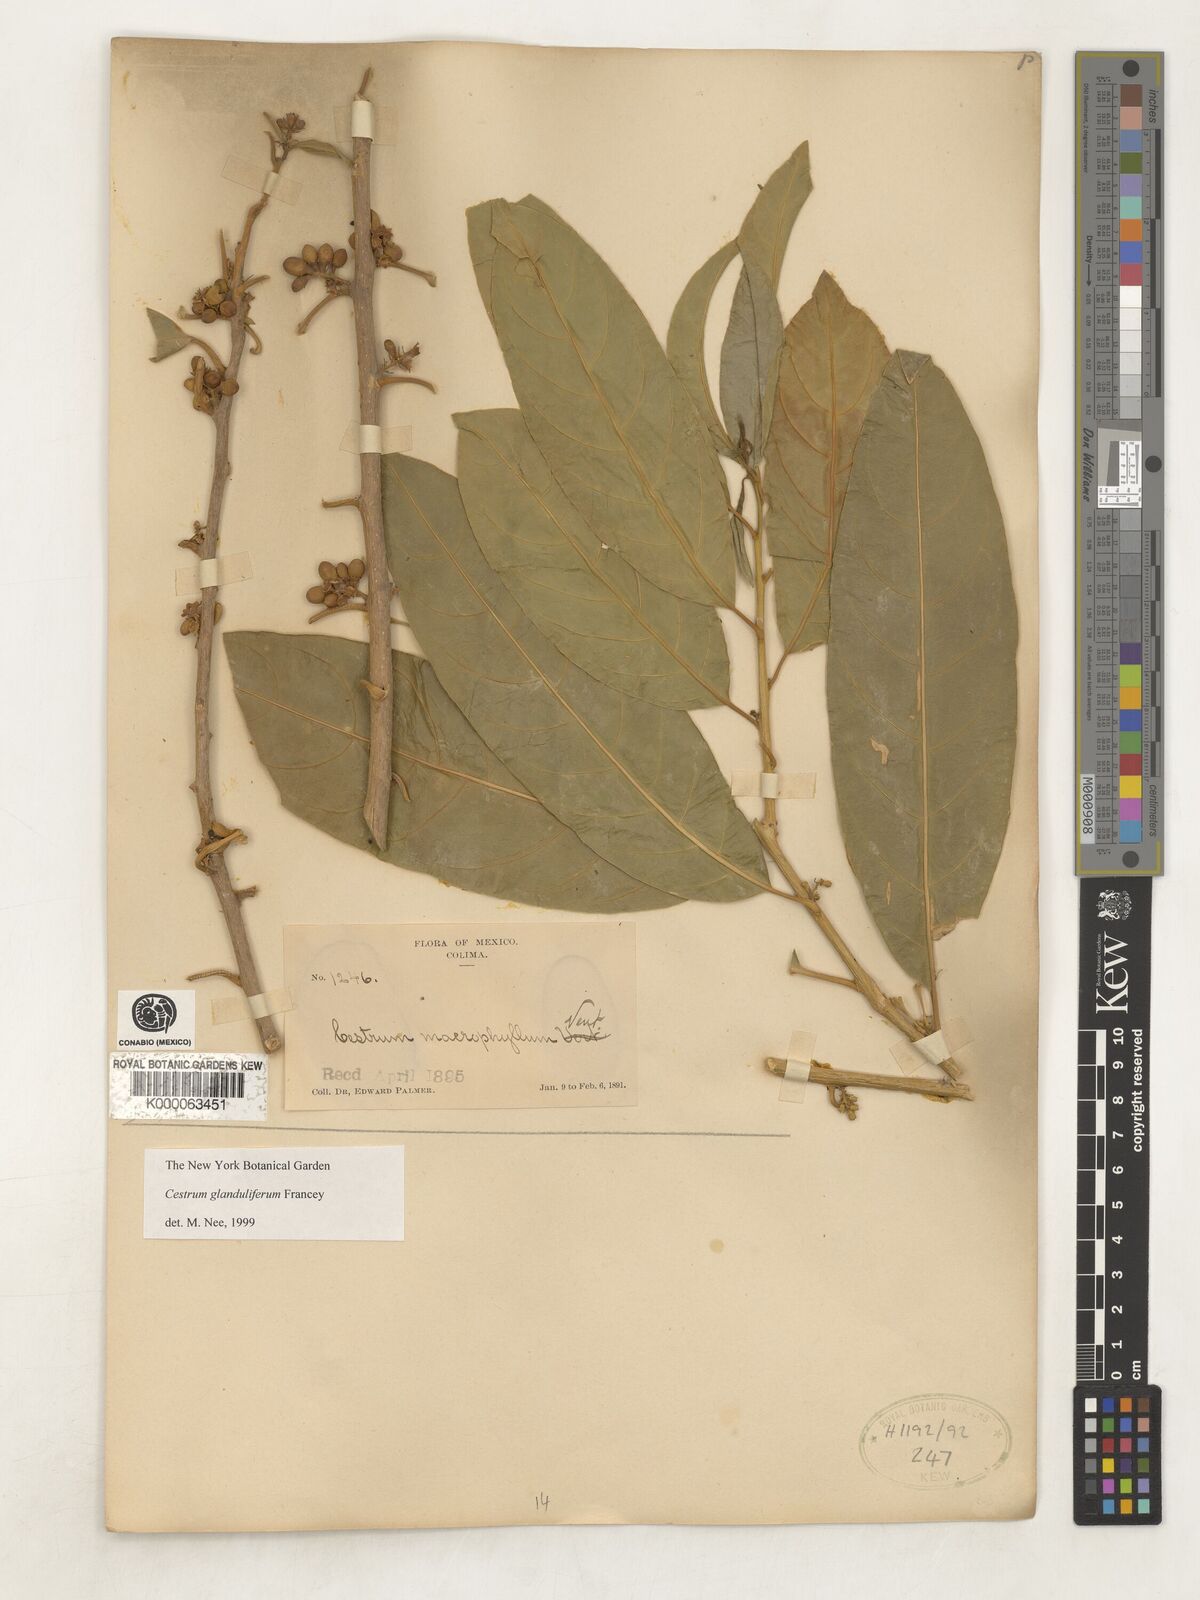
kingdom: Plantae
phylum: Tracheophyta
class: Magnoliopsida
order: Solanales
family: Solanaceae
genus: Cestrum
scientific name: Cestrum glanduliferum
